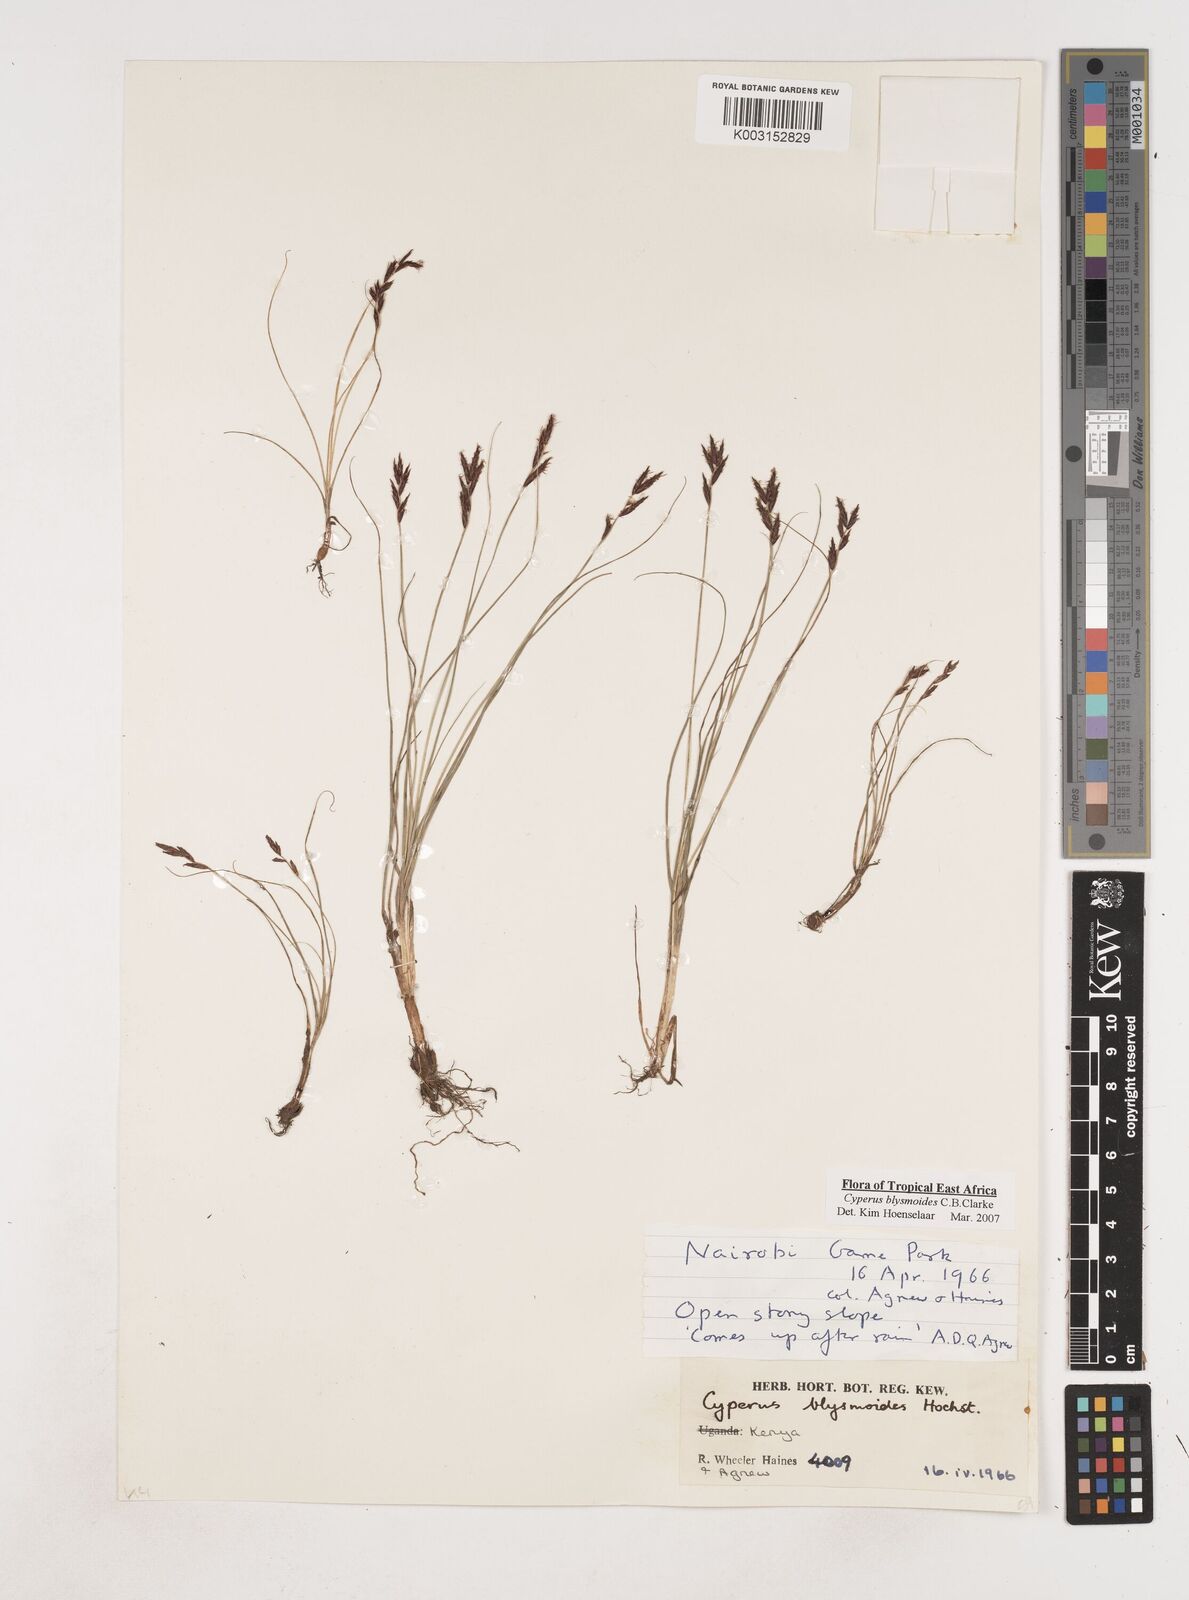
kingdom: Plantae
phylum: Tracheophyta
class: Liliopsida
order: Poales
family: Cyperaceae
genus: Cyperus
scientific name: Cyperus blysmoides
